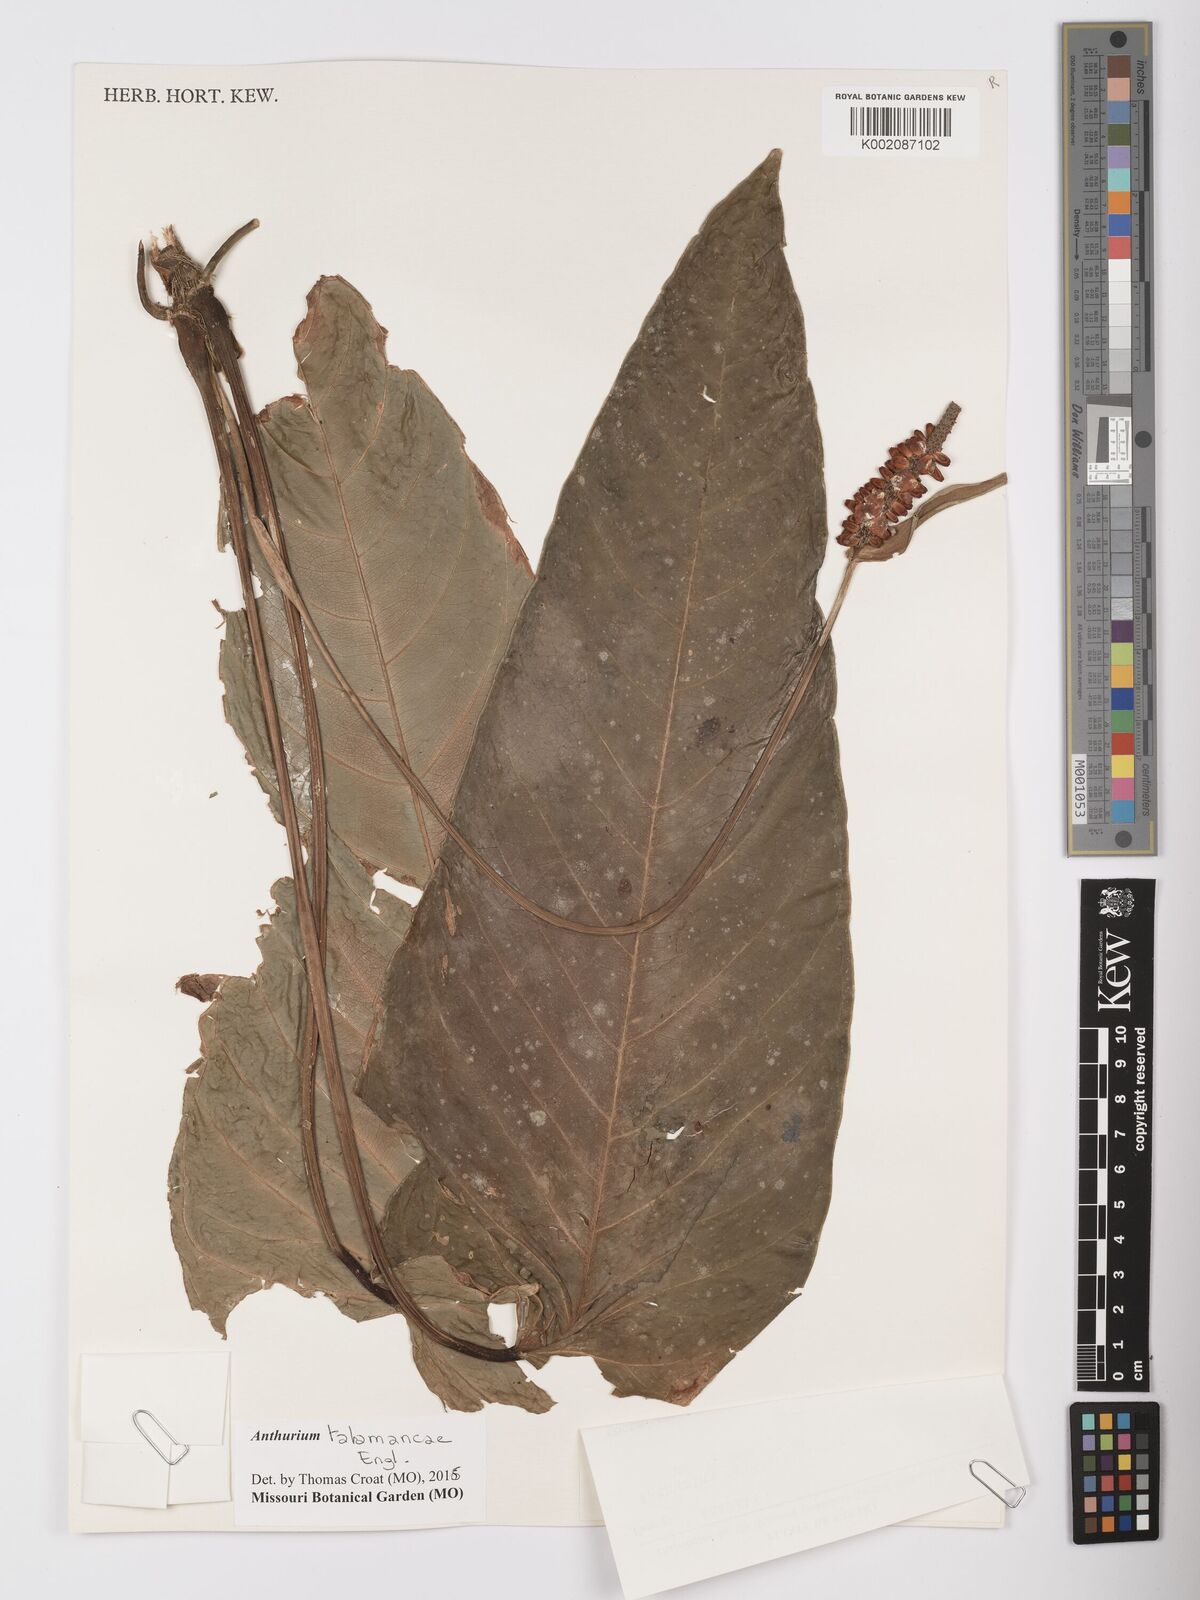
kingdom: Plantae
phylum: Tracheophyta
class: Liliopsida
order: Alismatales
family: Araceae
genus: Anthurium
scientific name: Anthurium talamancae
